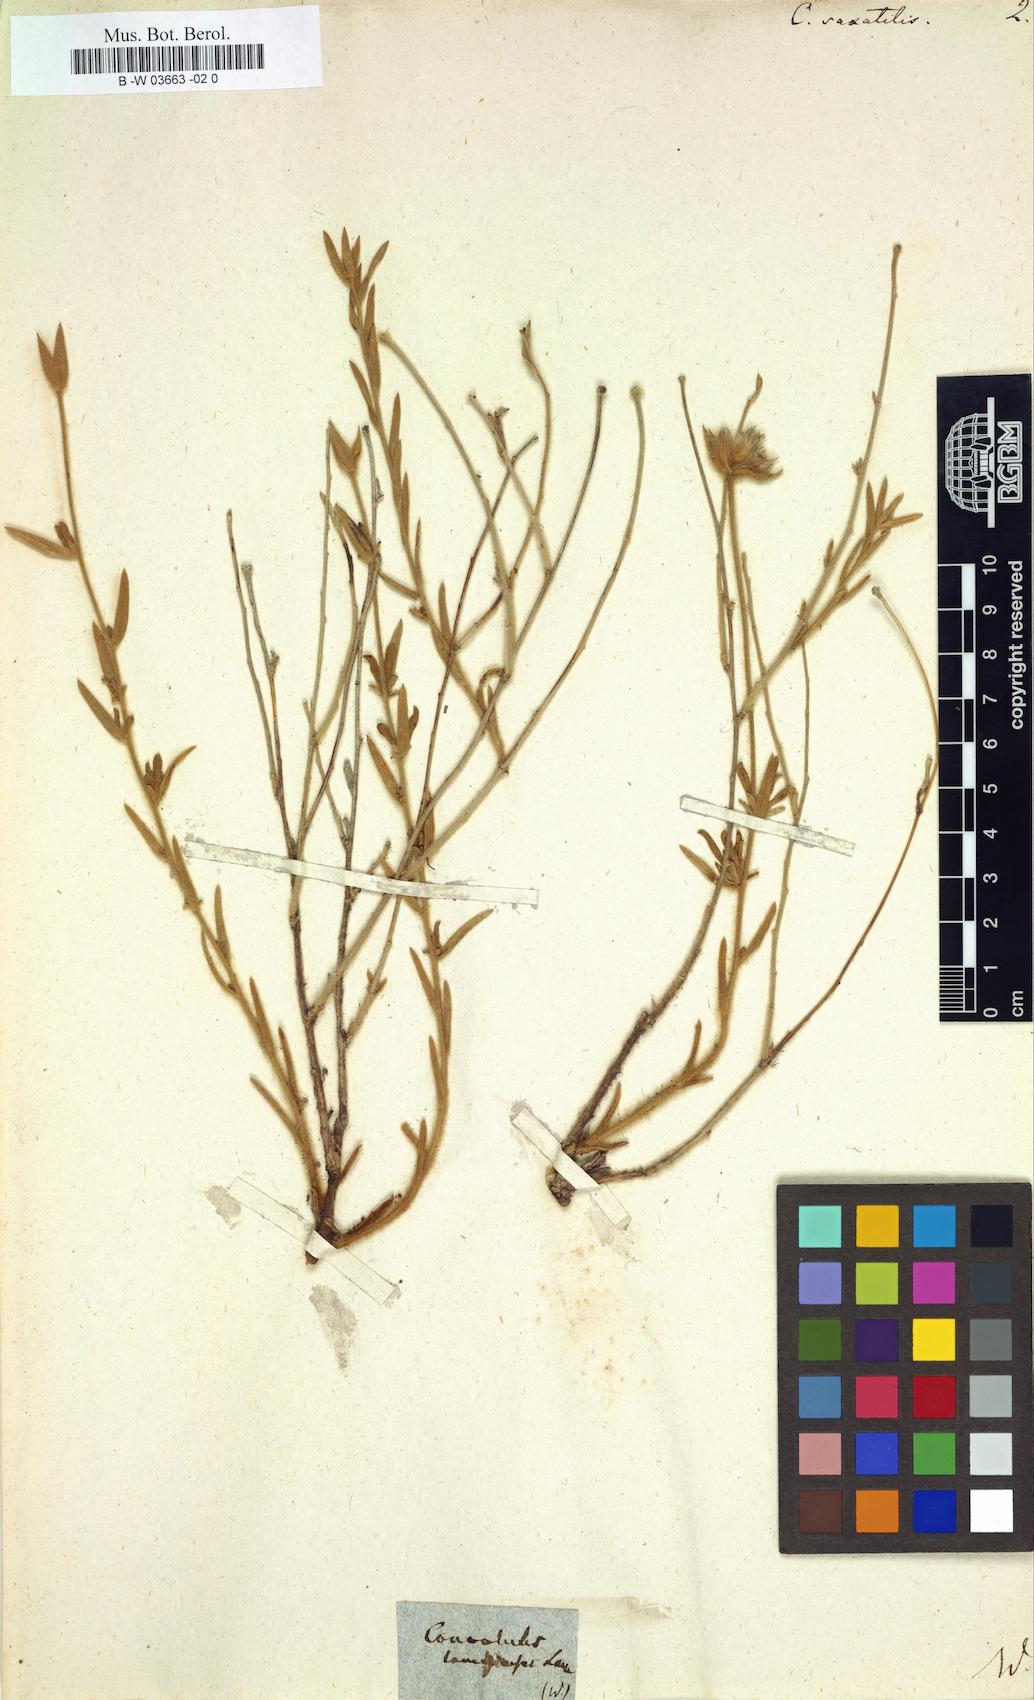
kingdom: Plantae
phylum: Tracheophyta
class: Magnoliopsida
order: Solanales
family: Convolvulaceae
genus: Convolvulus
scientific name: Convolvulus
